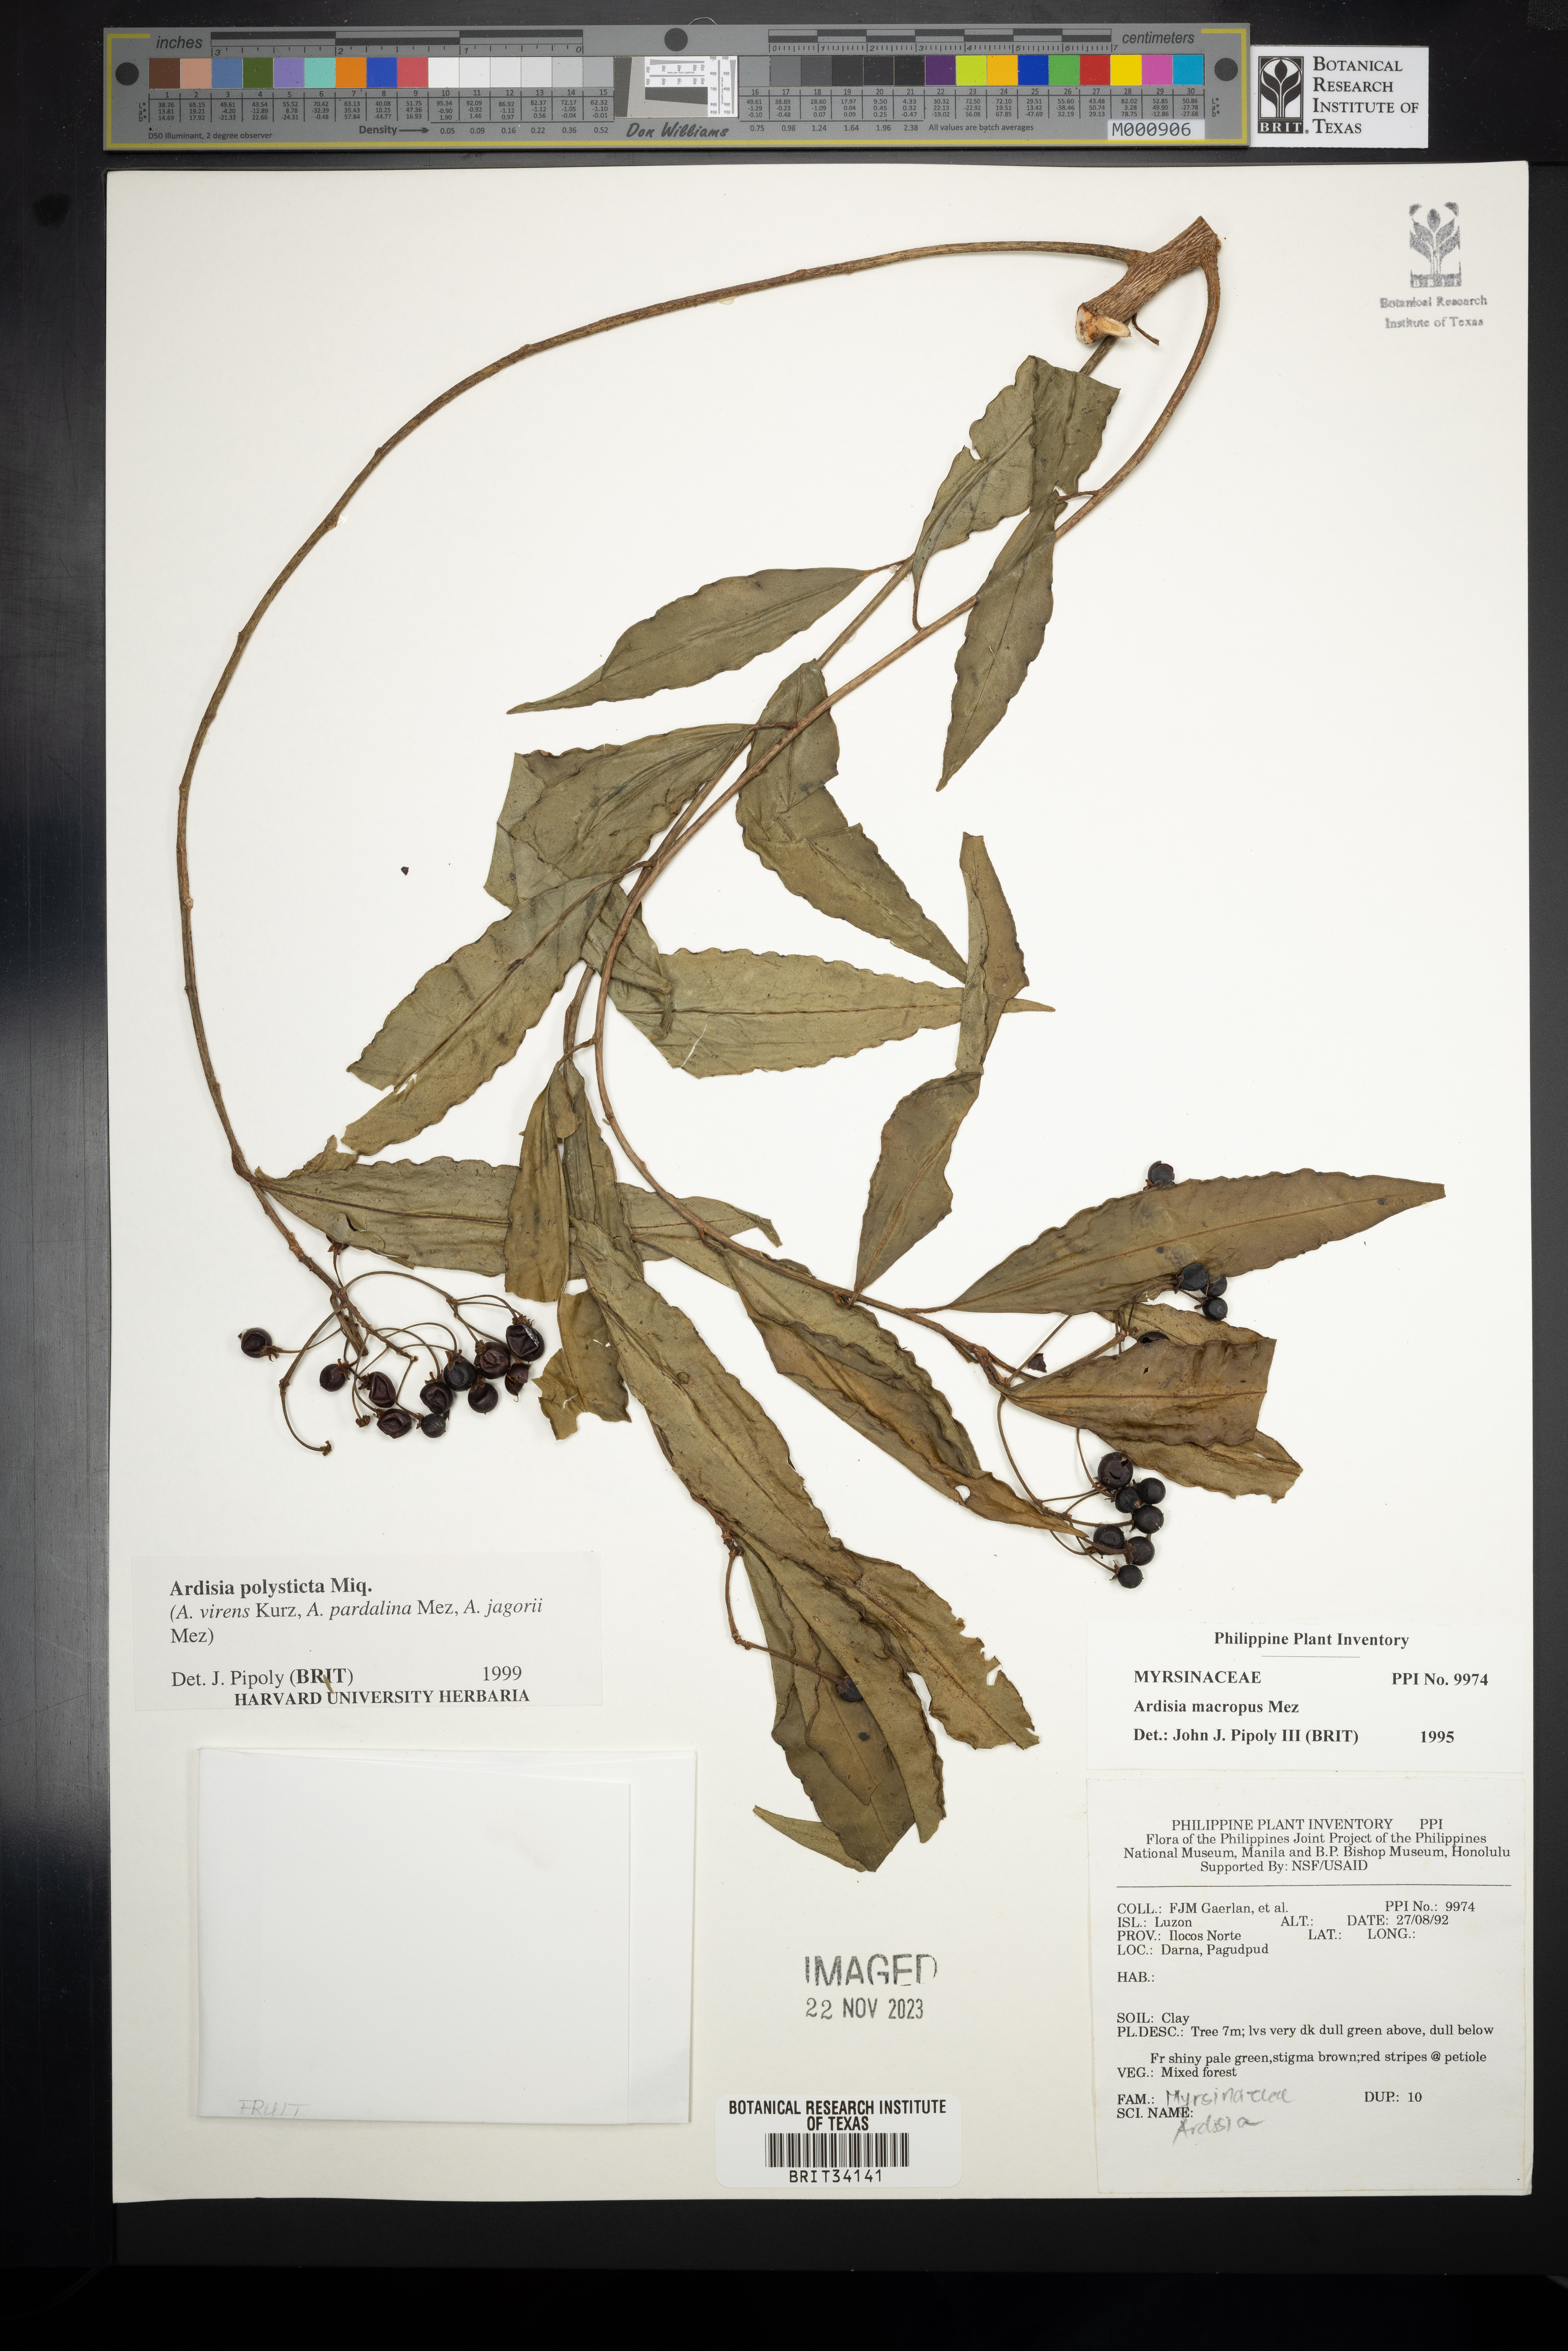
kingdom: Plantae
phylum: Tracheophyta
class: Magnoliopsida
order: Ericales
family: Primulaceae
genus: Ardisia
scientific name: Ardisia polysticta
